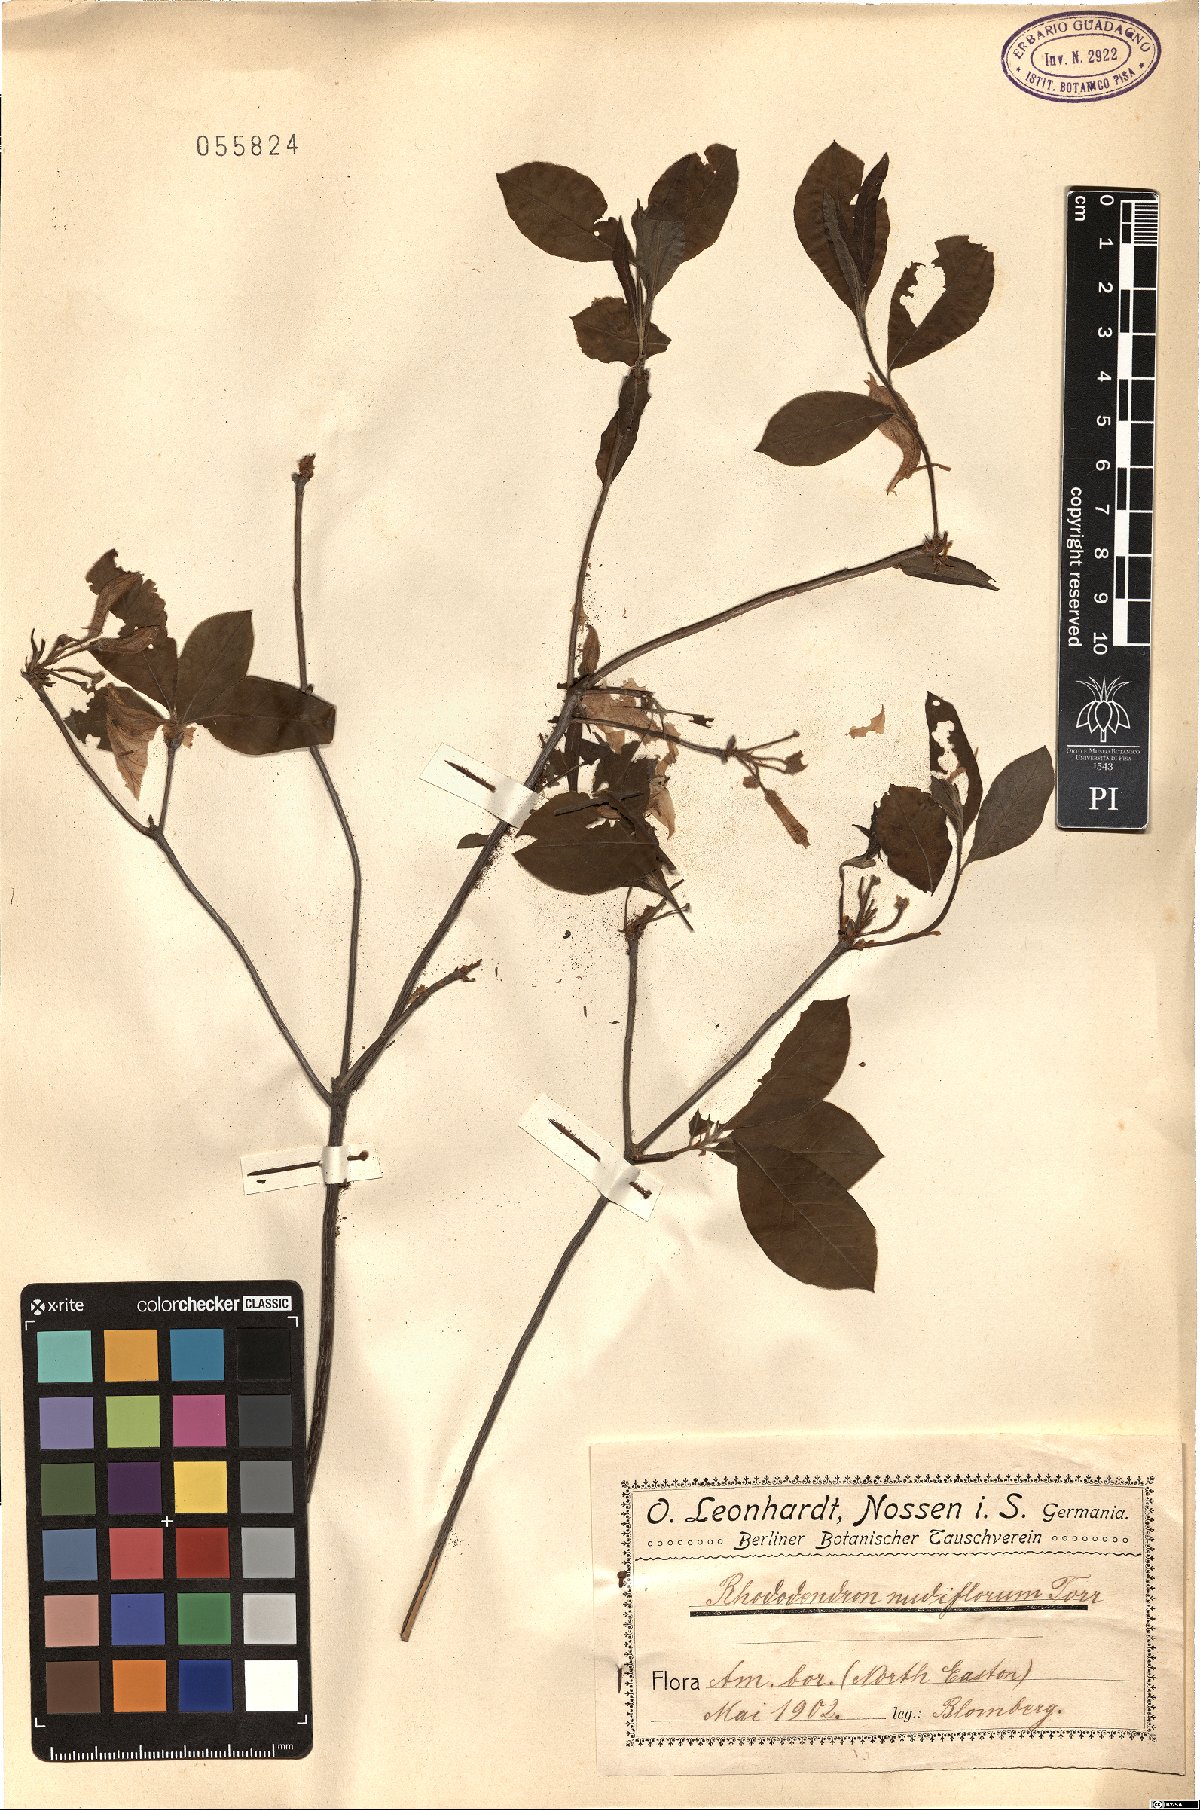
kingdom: Plantae
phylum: Tracheophyta
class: Magnoliopsida
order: Ericales
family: Ericaceae
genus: Rhododendron
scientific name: Rhododendron multiflorum
